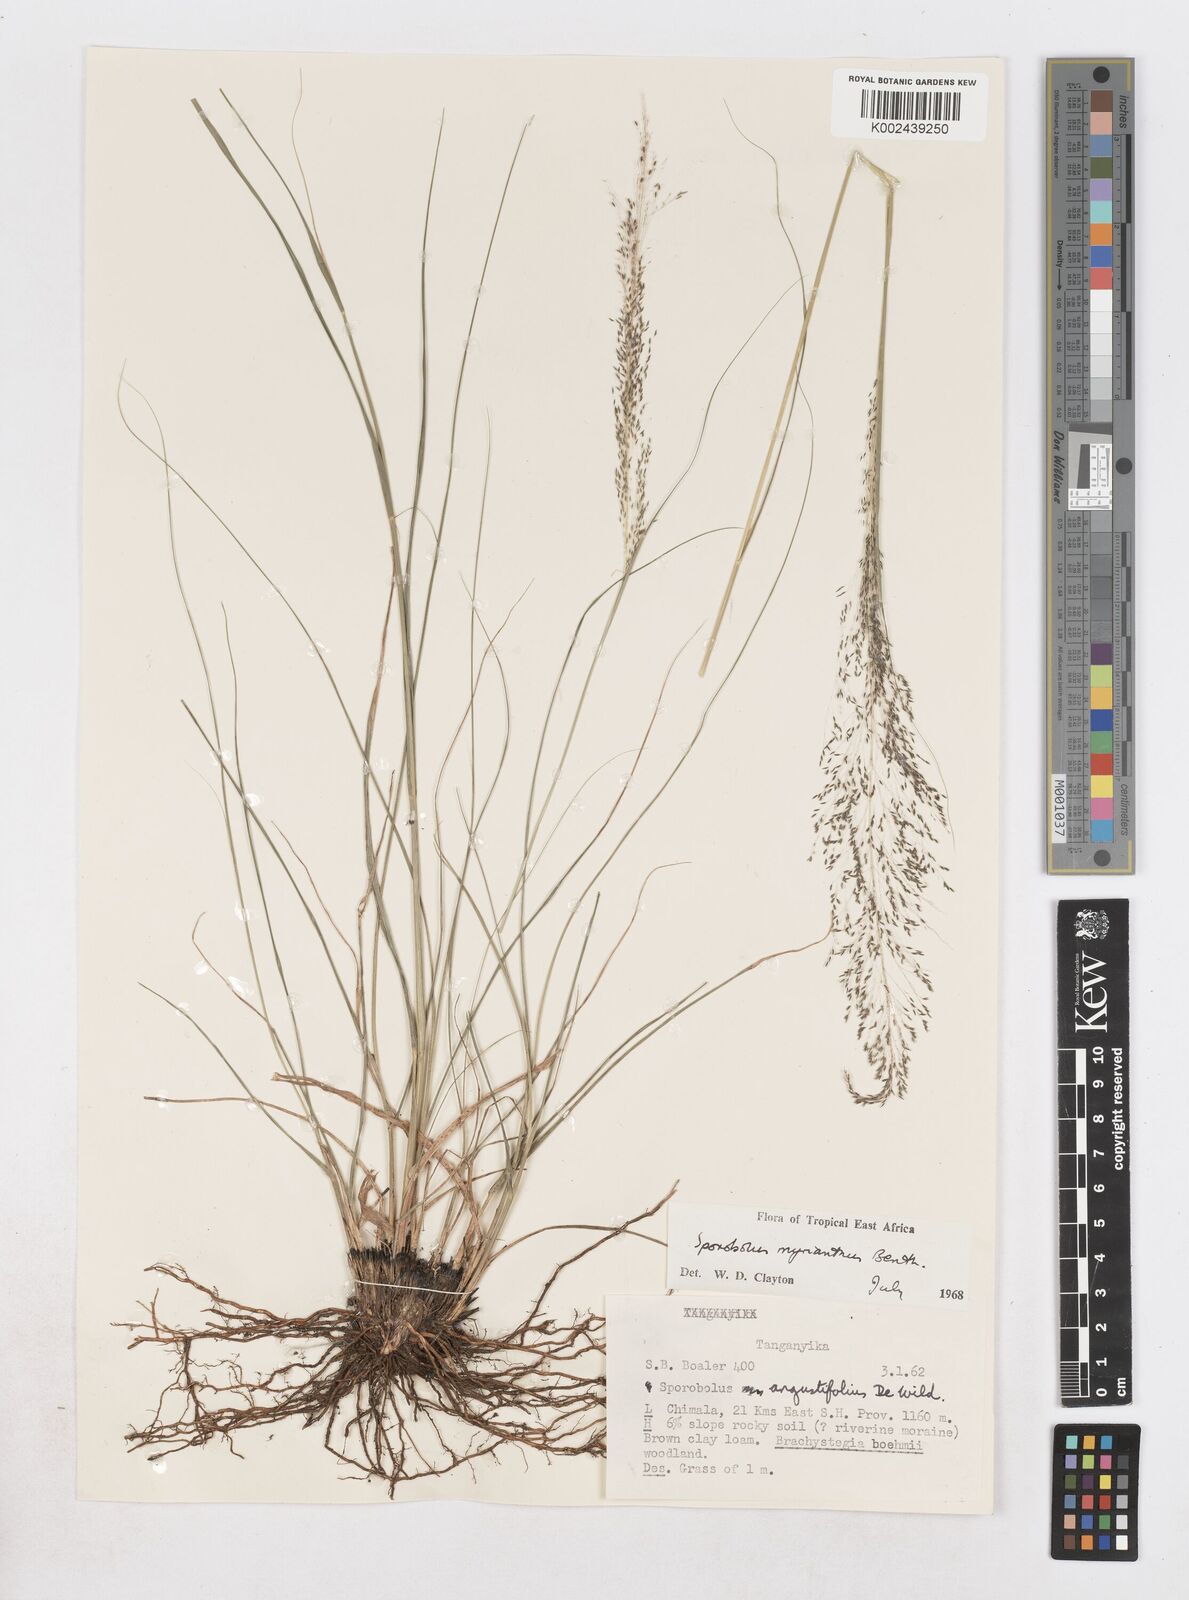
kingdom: Plantae
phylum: Tracheophyta
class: Liliopsida
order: Poales
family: Poaceae
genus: Sporobolus
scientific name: Sporobolus myrianthus
